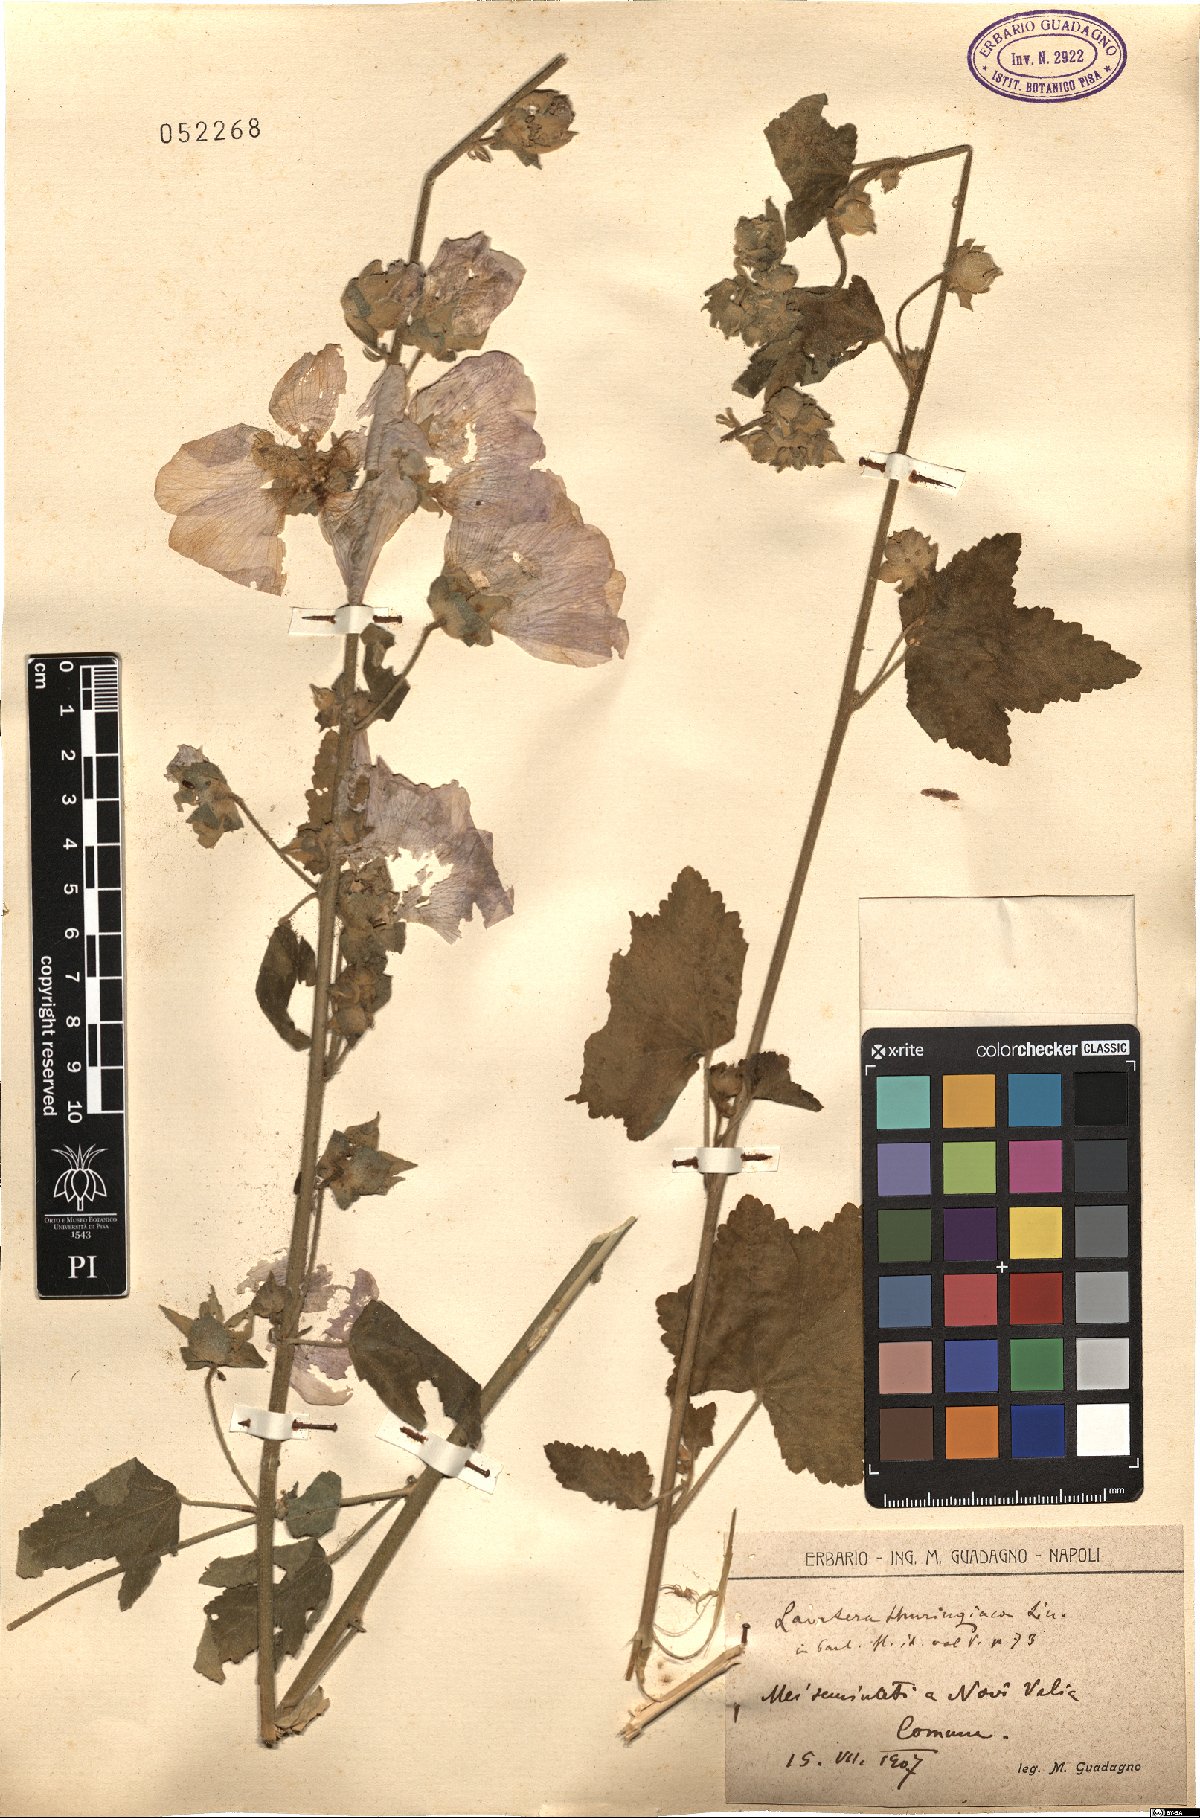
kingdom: Plantae
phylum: Tracheophyta
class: Magnoliopsida
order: Malvales
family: Malvaceae
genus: Malva
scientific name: Malva thuringiaca
